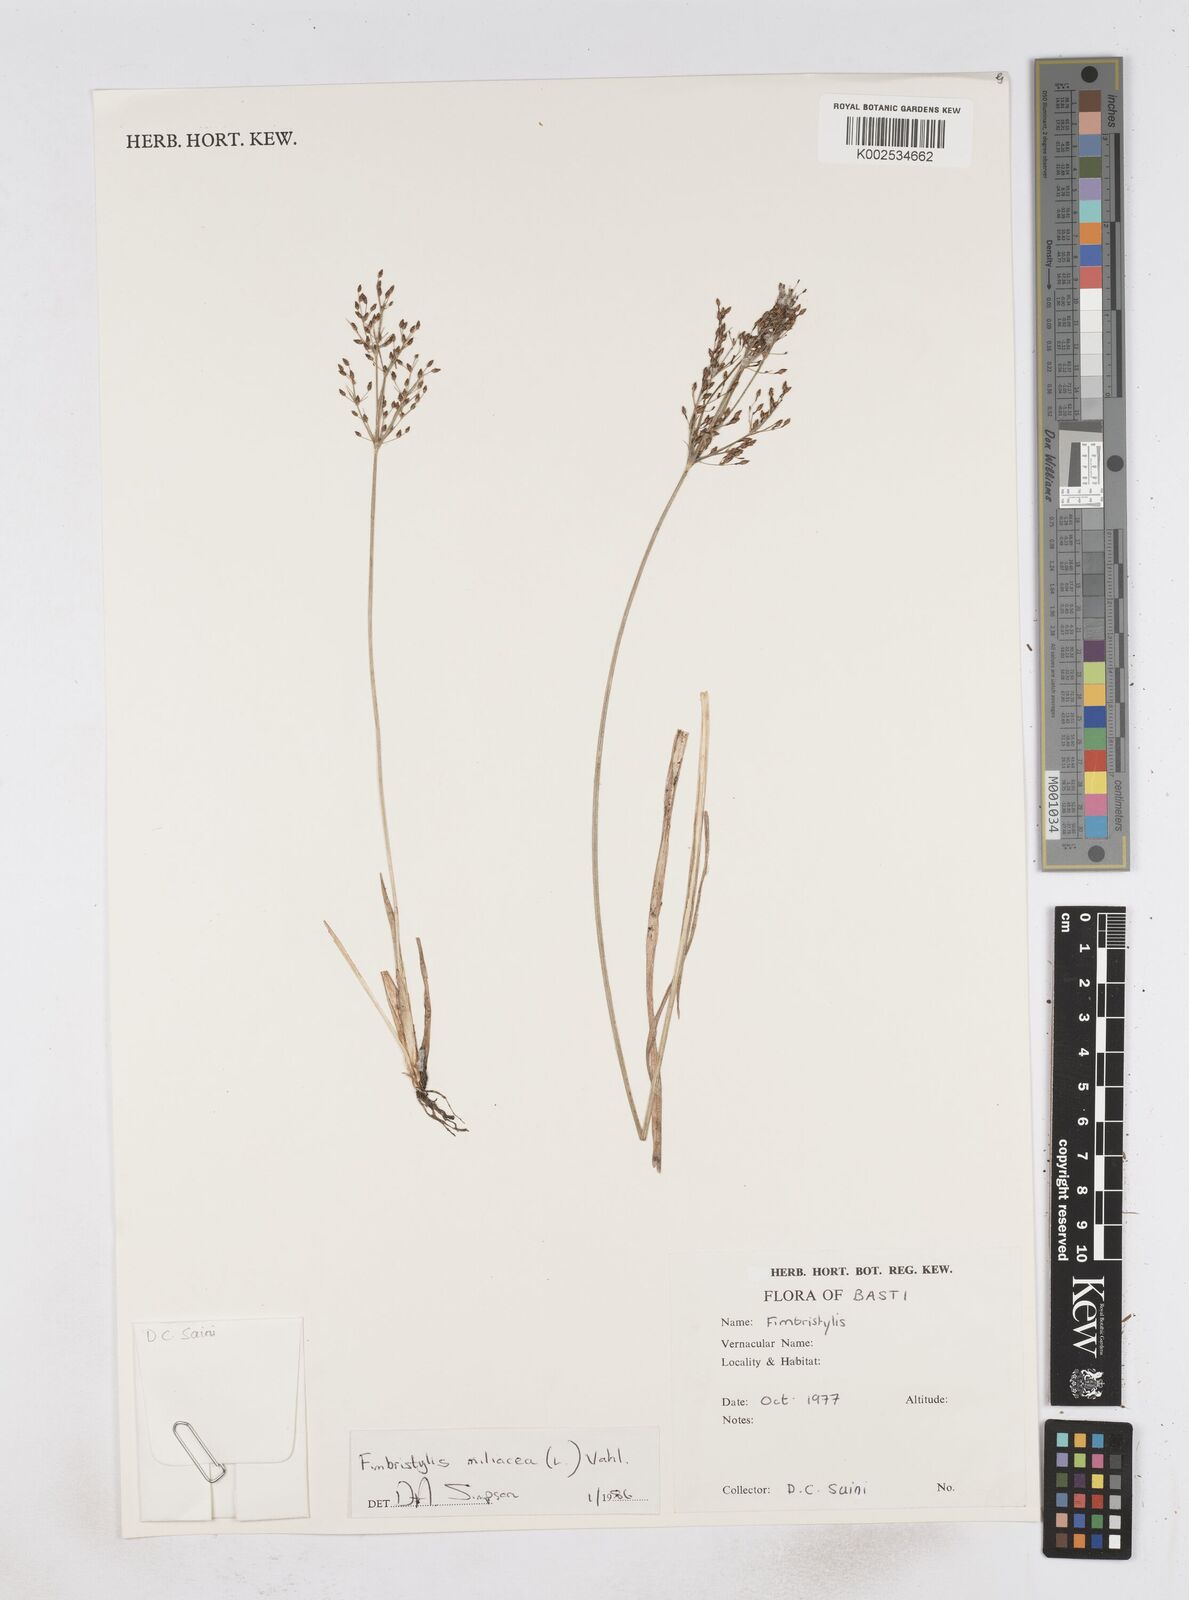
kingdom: Plantae
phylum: Tracheophyta
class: Liliopsida
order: Poales
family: Cyperaceae
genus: Fimbristylis
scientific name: Fimbristylis littoralis
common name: Fimbry
